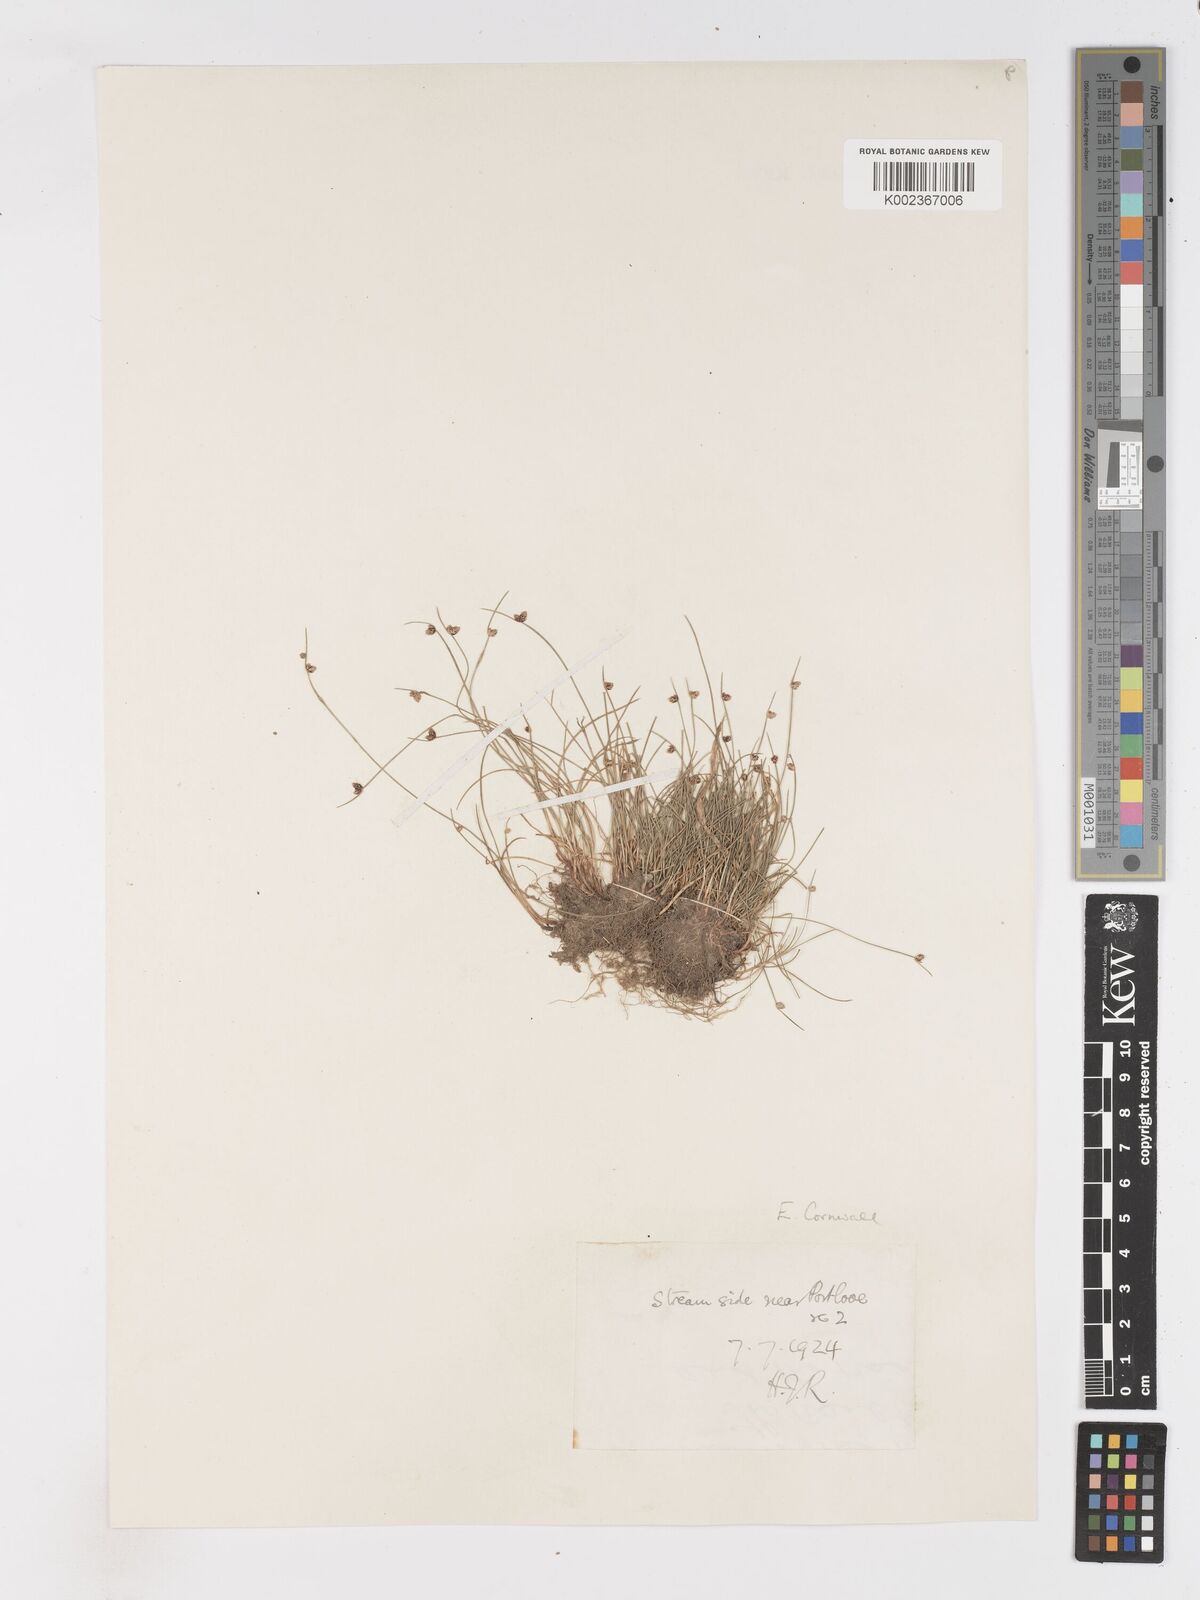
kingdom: Plantae
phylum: Tracheophyta
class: Liliopsida
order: Poales
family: Cyperaceae
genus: Isolepis
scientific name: Isolepis setacea
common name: Bristle club-rush
